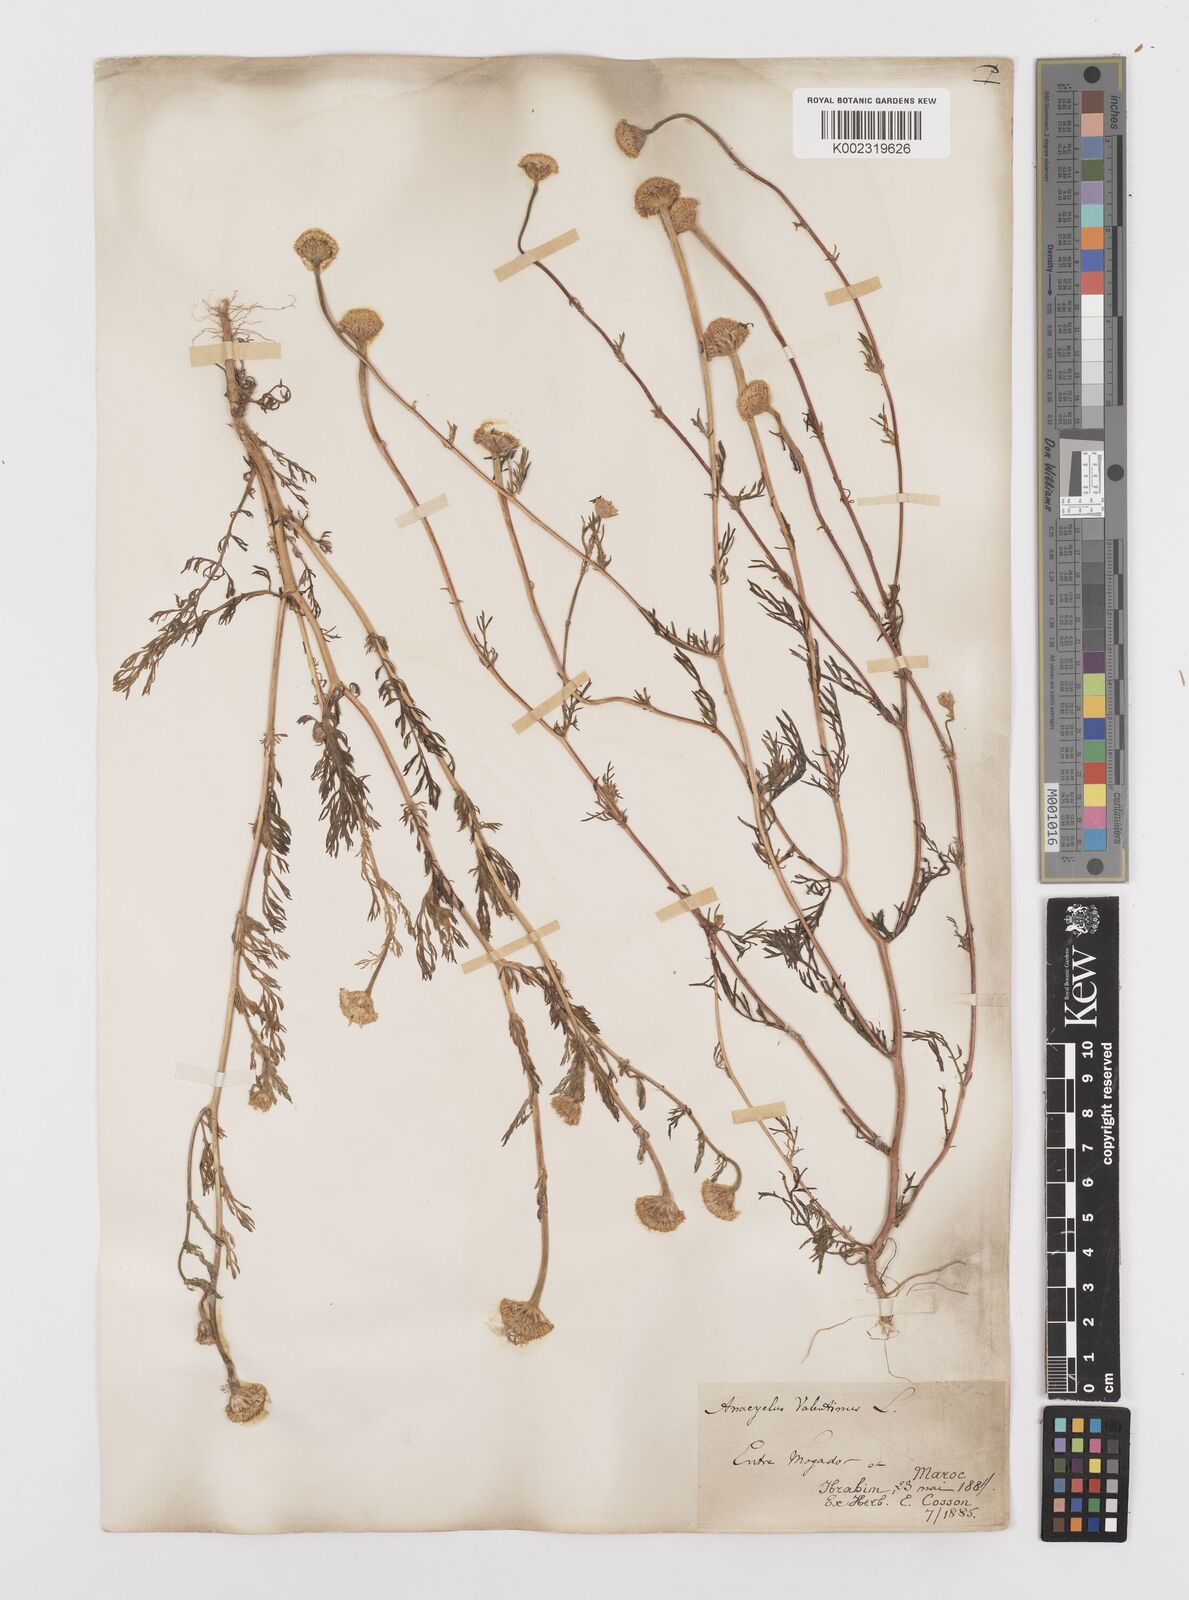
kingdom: Plantae
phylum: Tracheophyta
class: Magnoliopsida
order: Asterales
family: Asteraceae
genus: Anacyclus
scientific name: Anacyclus valentinus
